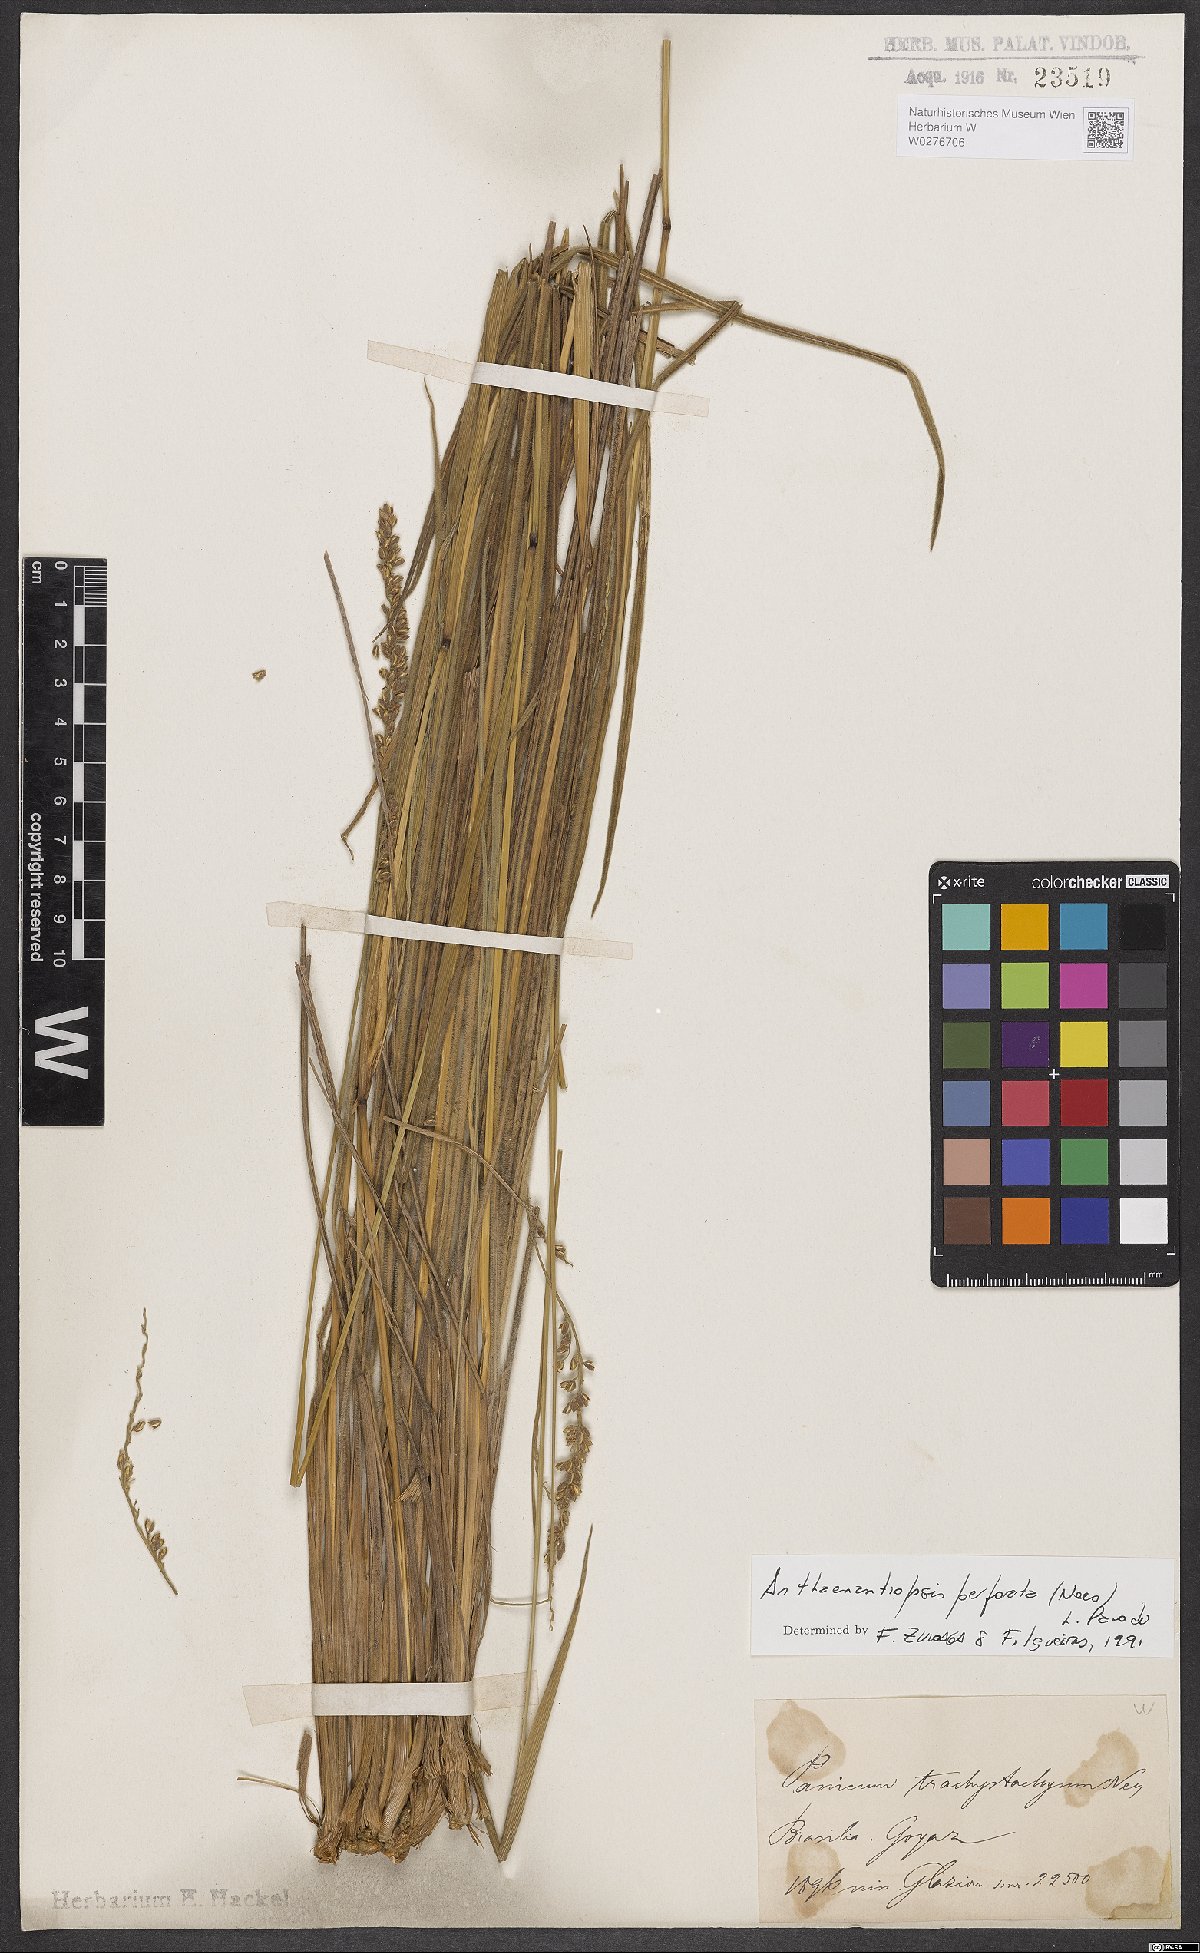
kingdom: Plantae
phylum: Tracheophyta
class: Liliopsida
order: Poales
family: Poaceae
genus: Anthaenantiopsis
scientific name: Anthaenantiopsis perforata
